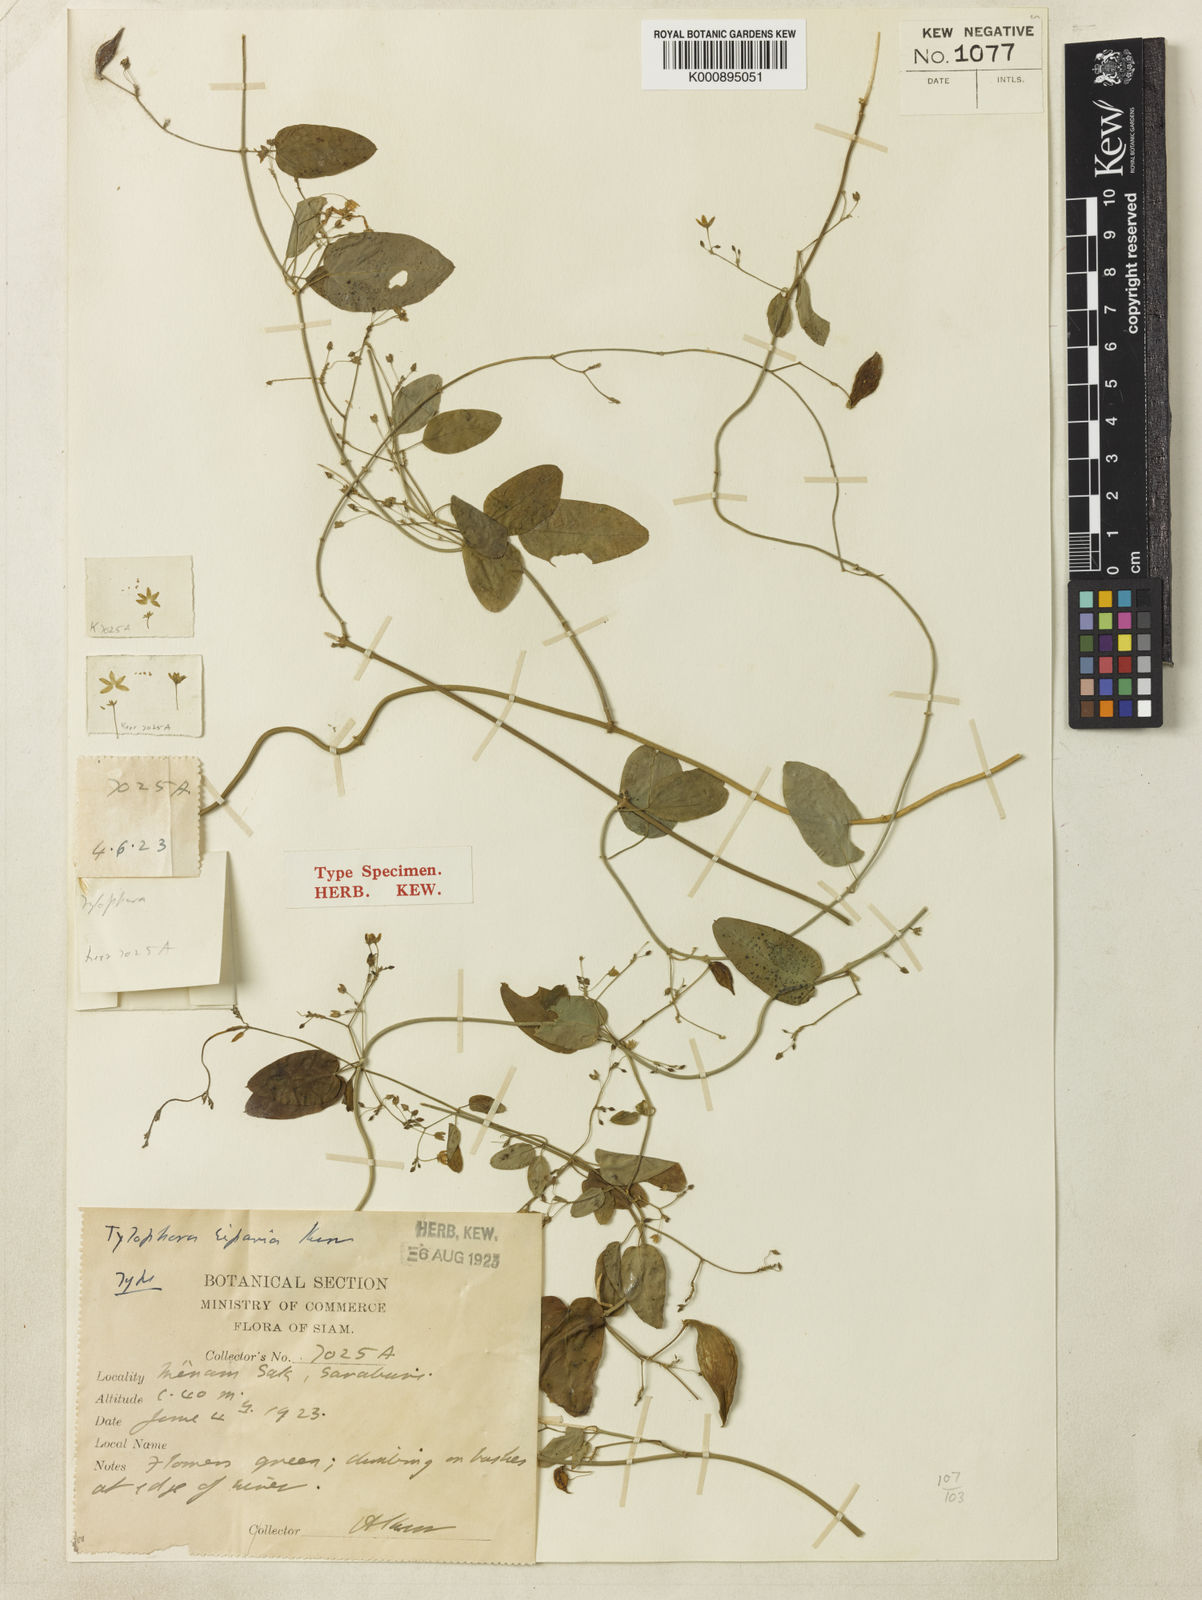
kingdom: Plantae
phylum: Tracheophyta
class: Magnoliopsida
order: Gentianales
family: Apocynaceae
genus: Vincetoxicum
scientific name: Vincetoxicum potamophilum
